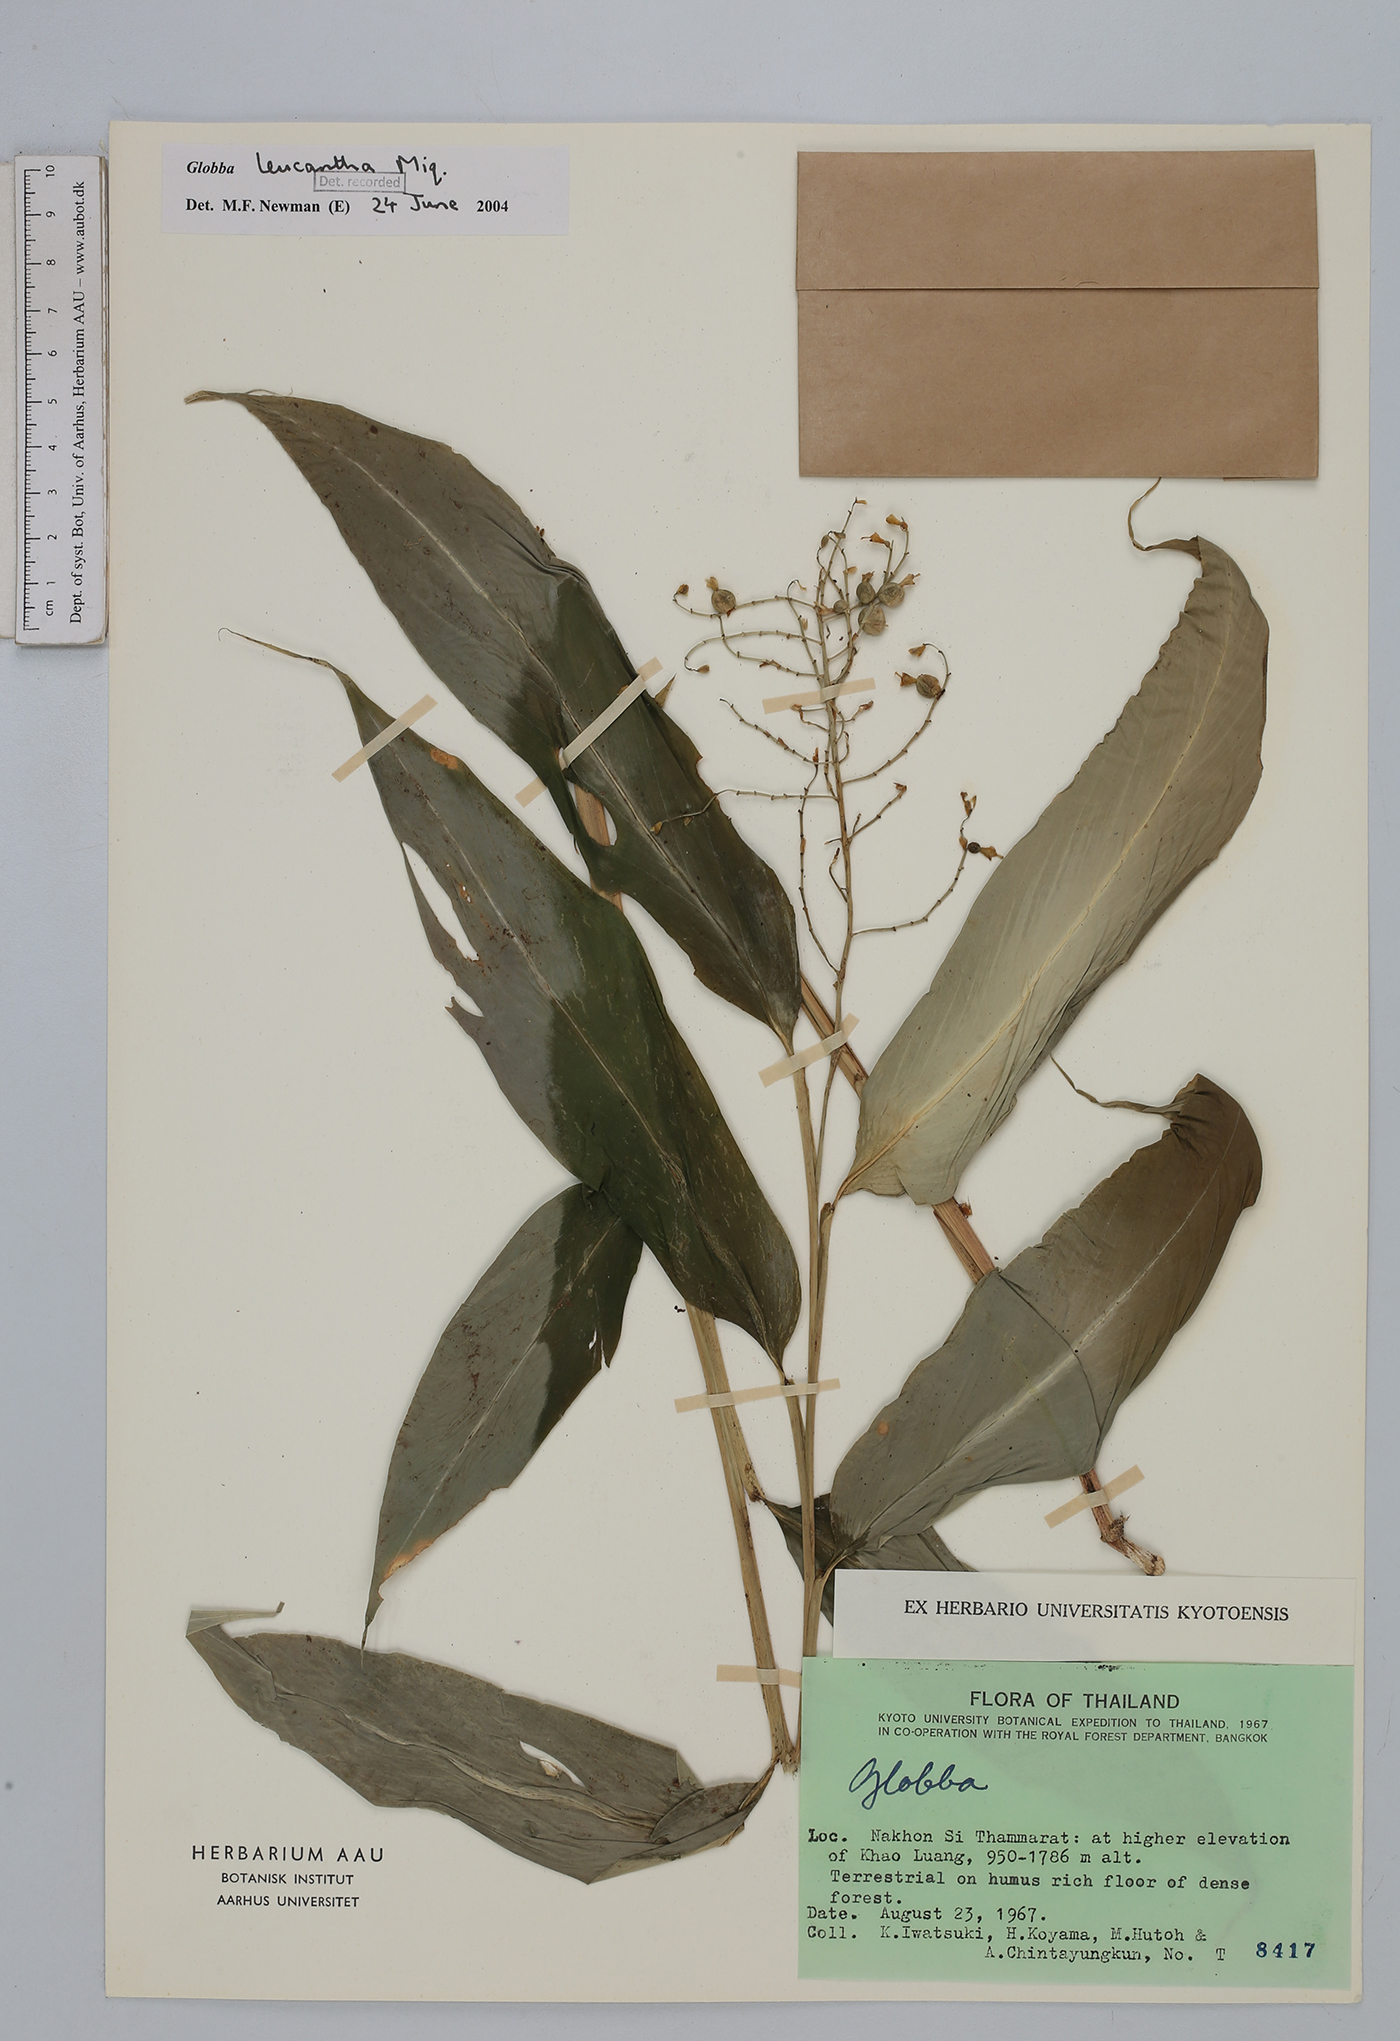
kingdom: Plantae
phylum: Tracheophyta
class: Liliopsida
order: Zingiberales
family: Zingiberaceae
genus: Globba
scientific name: Globba leucantha
